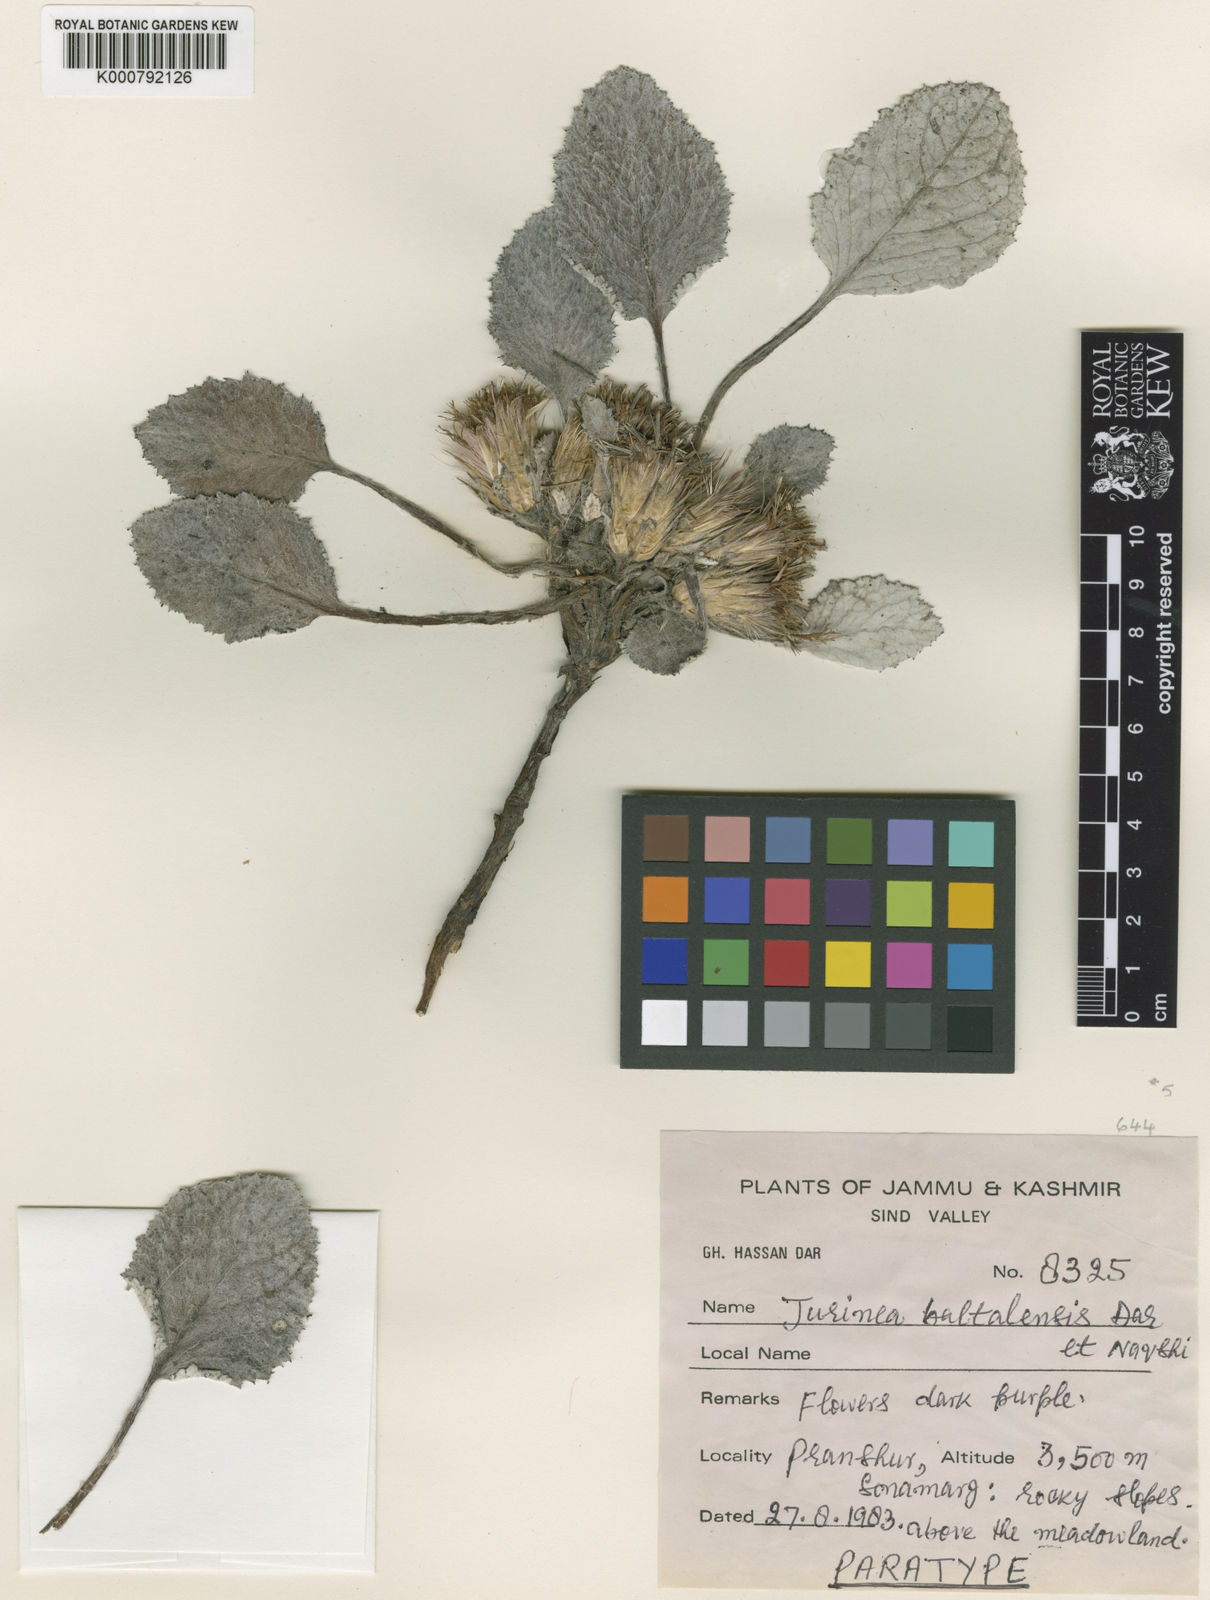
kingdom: Plantae
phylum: Tracheophyta
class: Magnoliopsida
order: Asterales
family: Asteraceae
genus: Jurinea
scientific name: Jurinea
